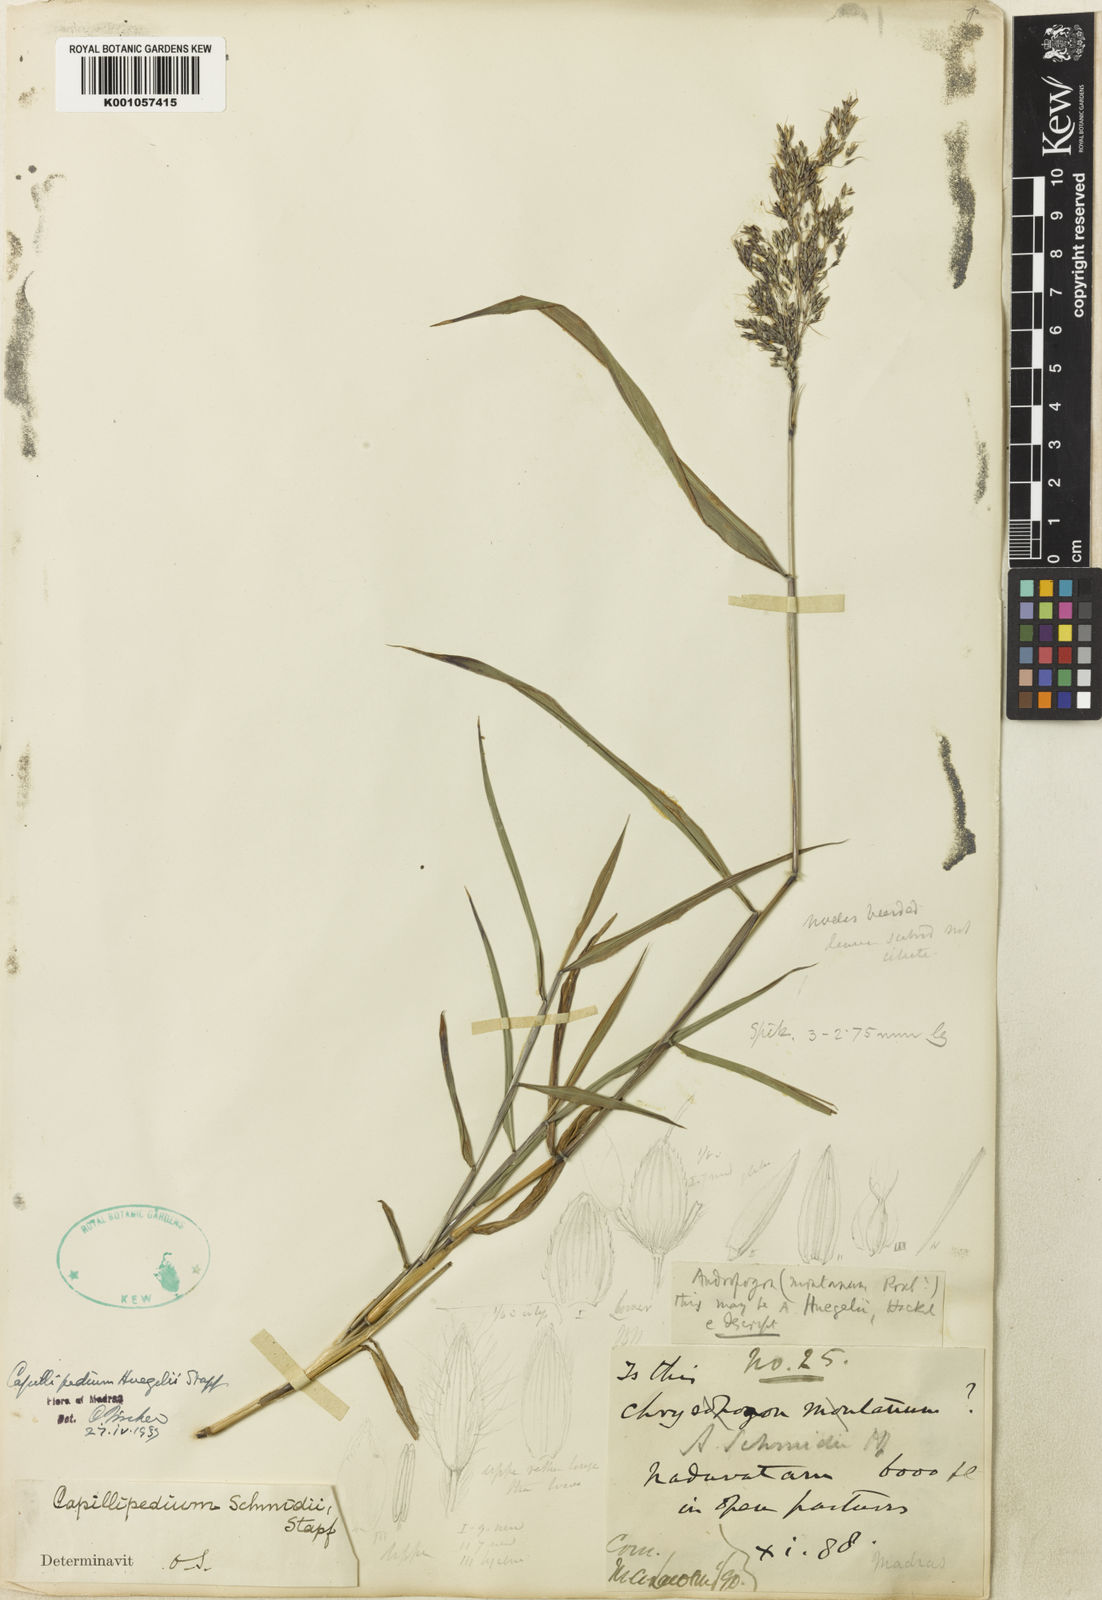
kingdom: Plantae
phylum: Tracheophyta
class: Liliopsida
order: Poales
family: Poaceae
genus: Capillipedium
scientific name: Capillipedium
